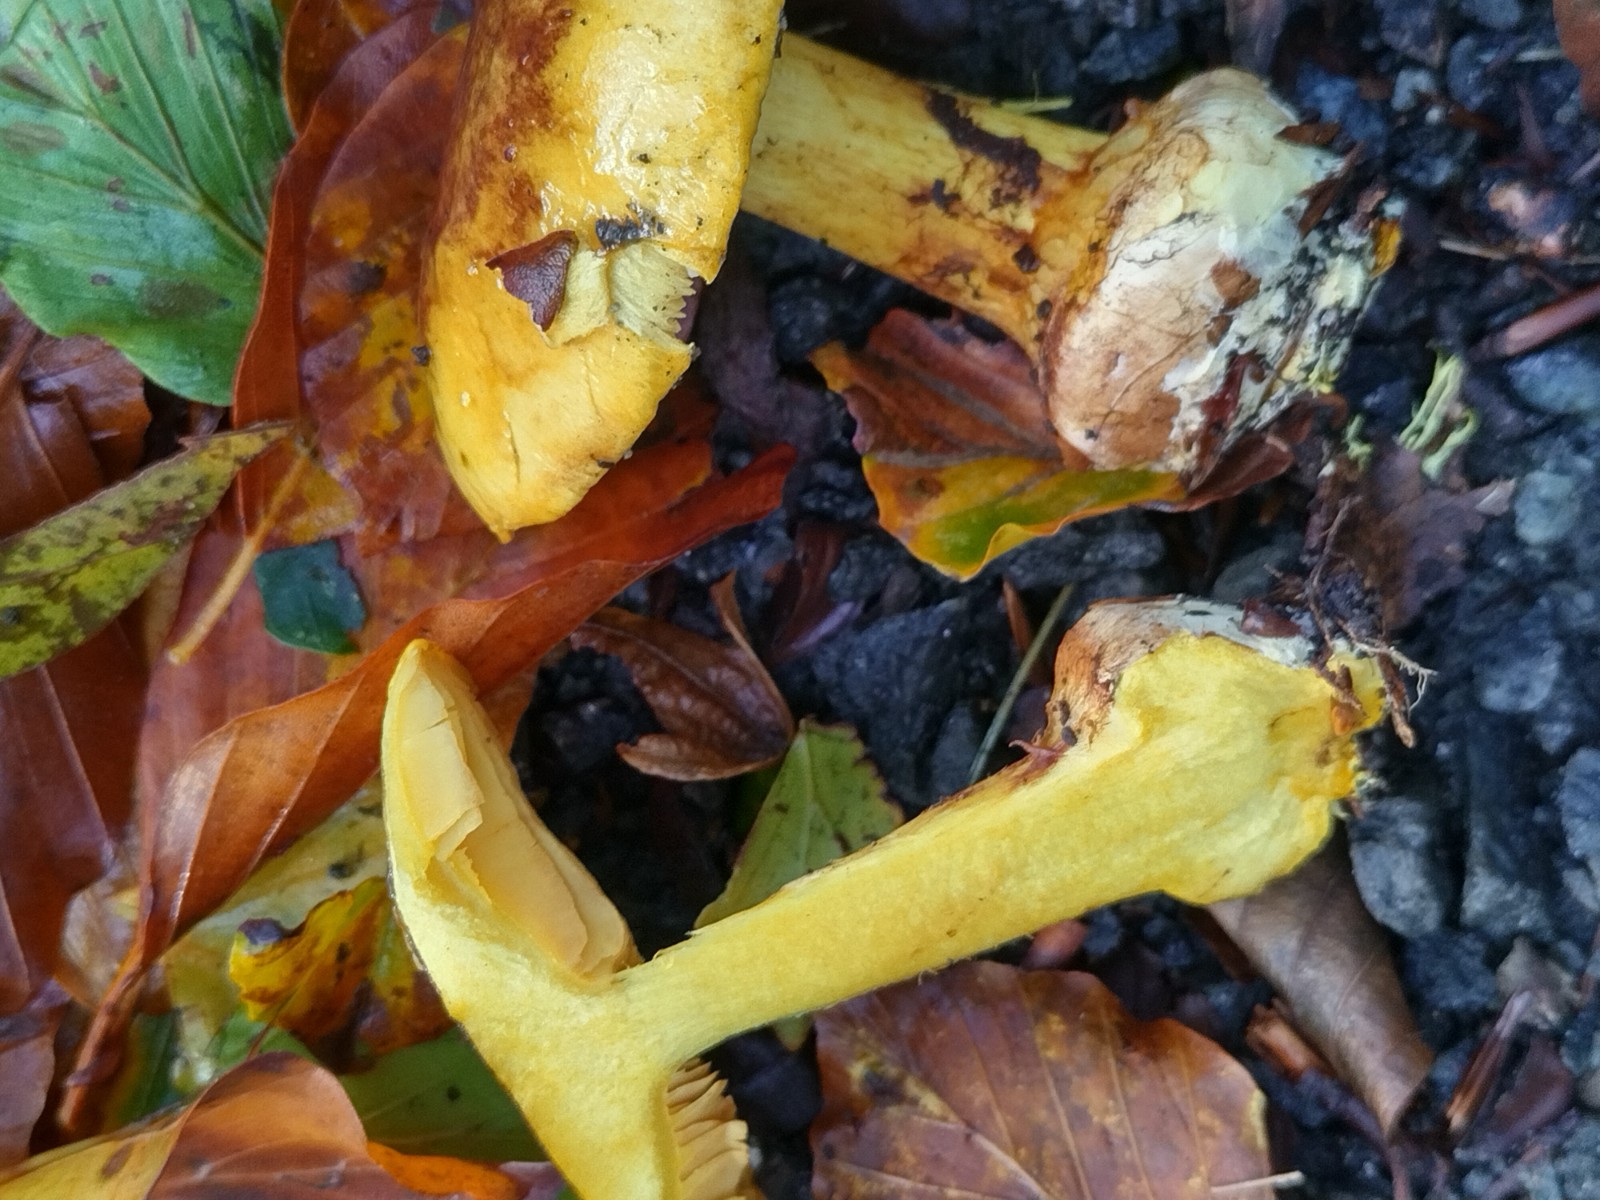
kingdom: Fungi
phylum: Basidiomycota
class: Agaricomycetes
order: Agaricales
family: Cortinariaceae
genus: Calonarius
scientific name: Calonarius splendens
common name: sirene-slørhat
